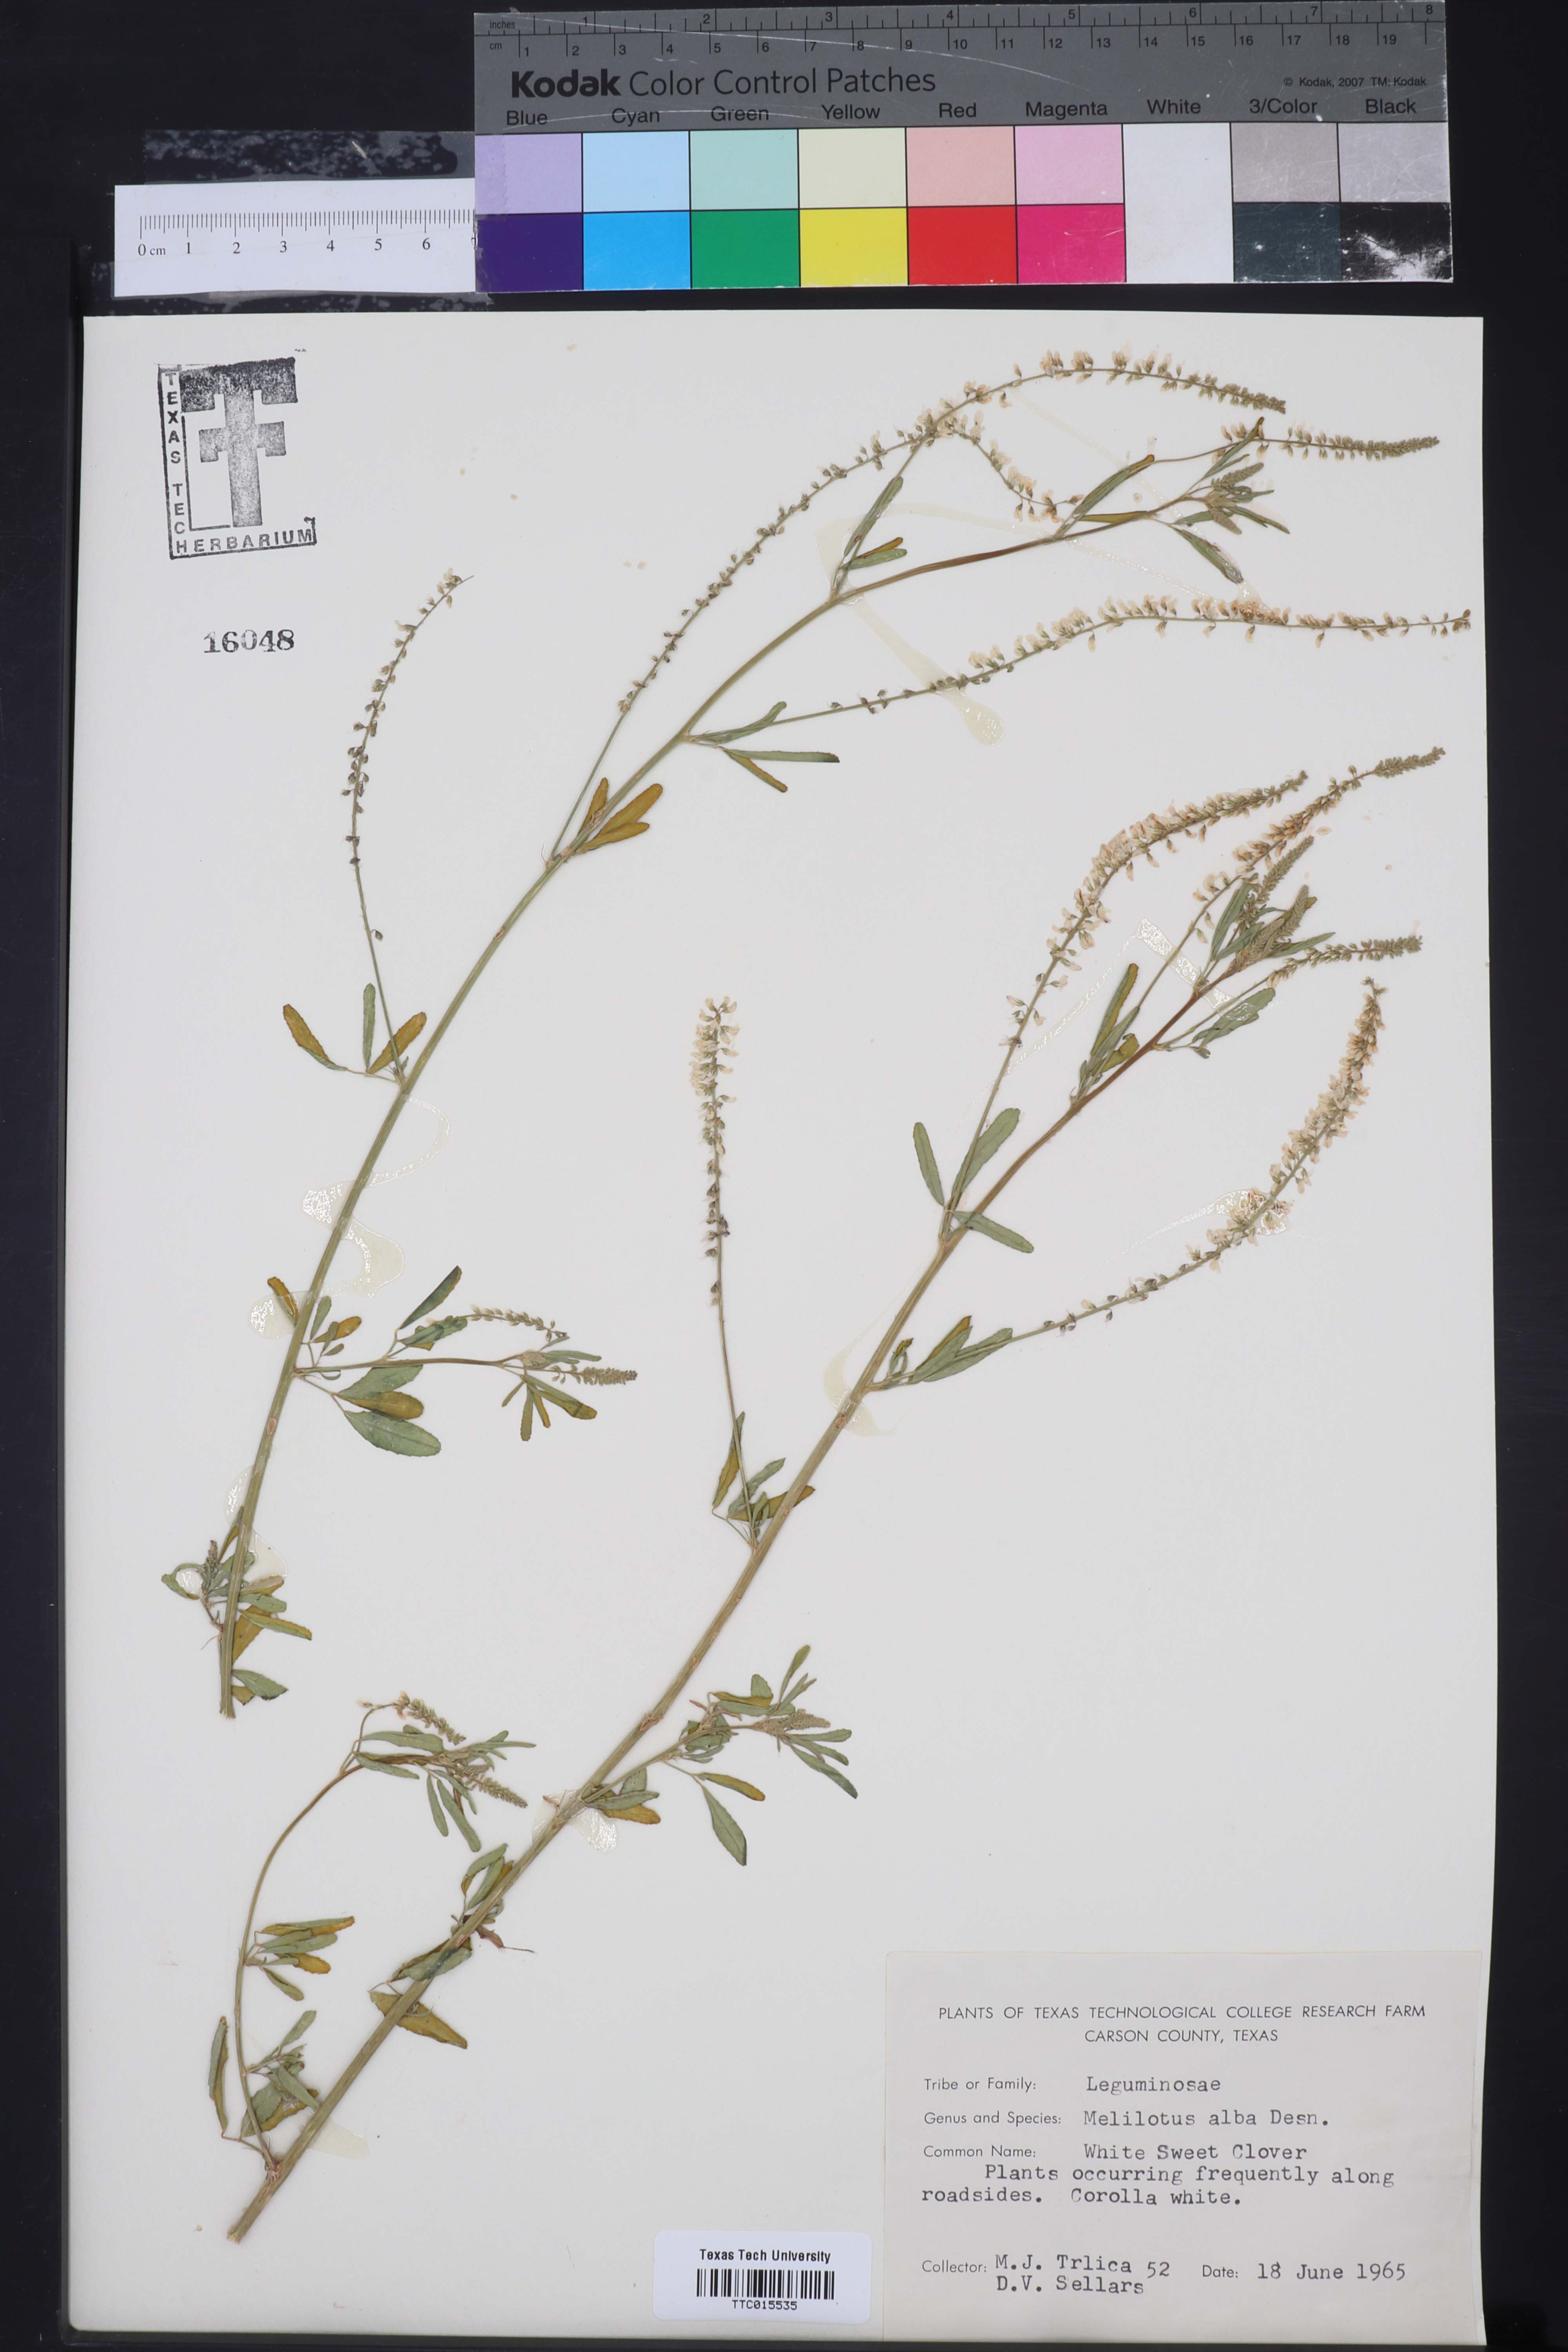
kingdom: Plantae
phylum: Tracheophyta
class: Magnoliopsida
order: Fabales
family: Fabaceae
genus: Melilotus
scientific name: Melilotus albus
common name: White melilot
